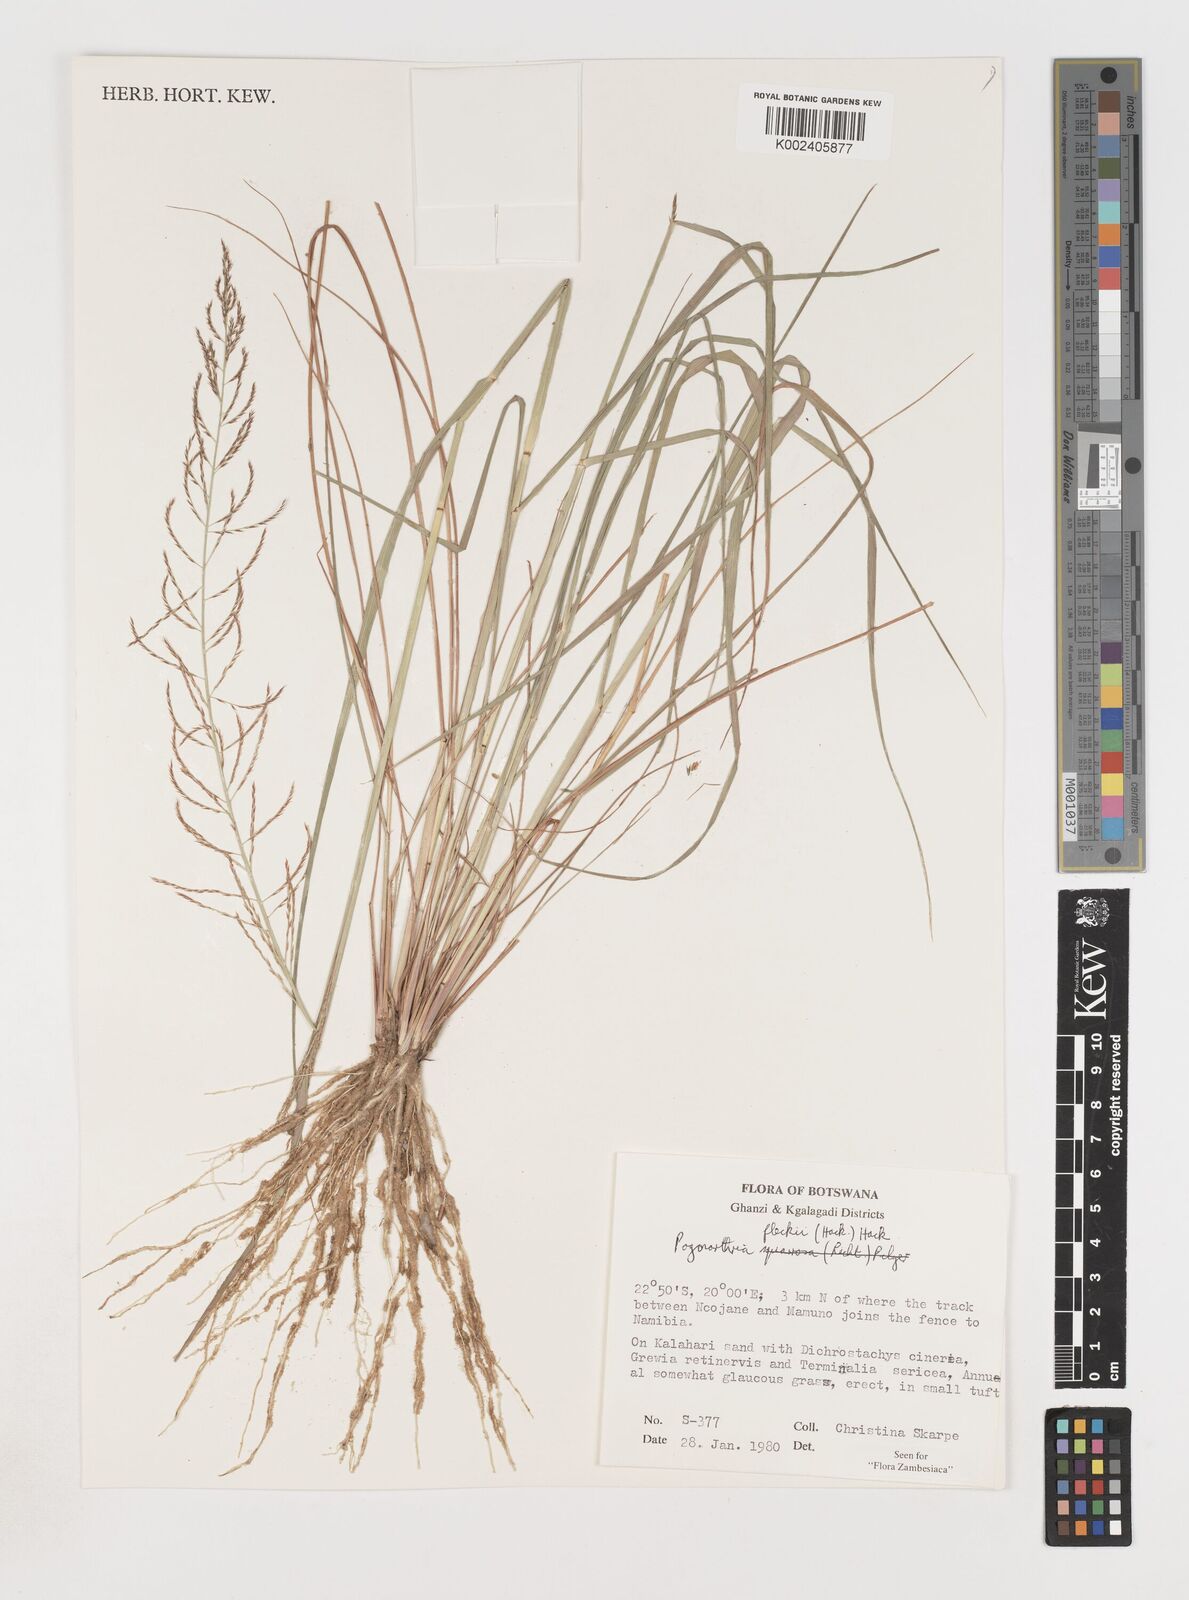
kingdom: Plantae
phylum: Tracheophyta
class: Liliopsida
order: Poales
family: Poaceae
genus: Pogonarthria
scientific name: Pogonarthria fleckii
